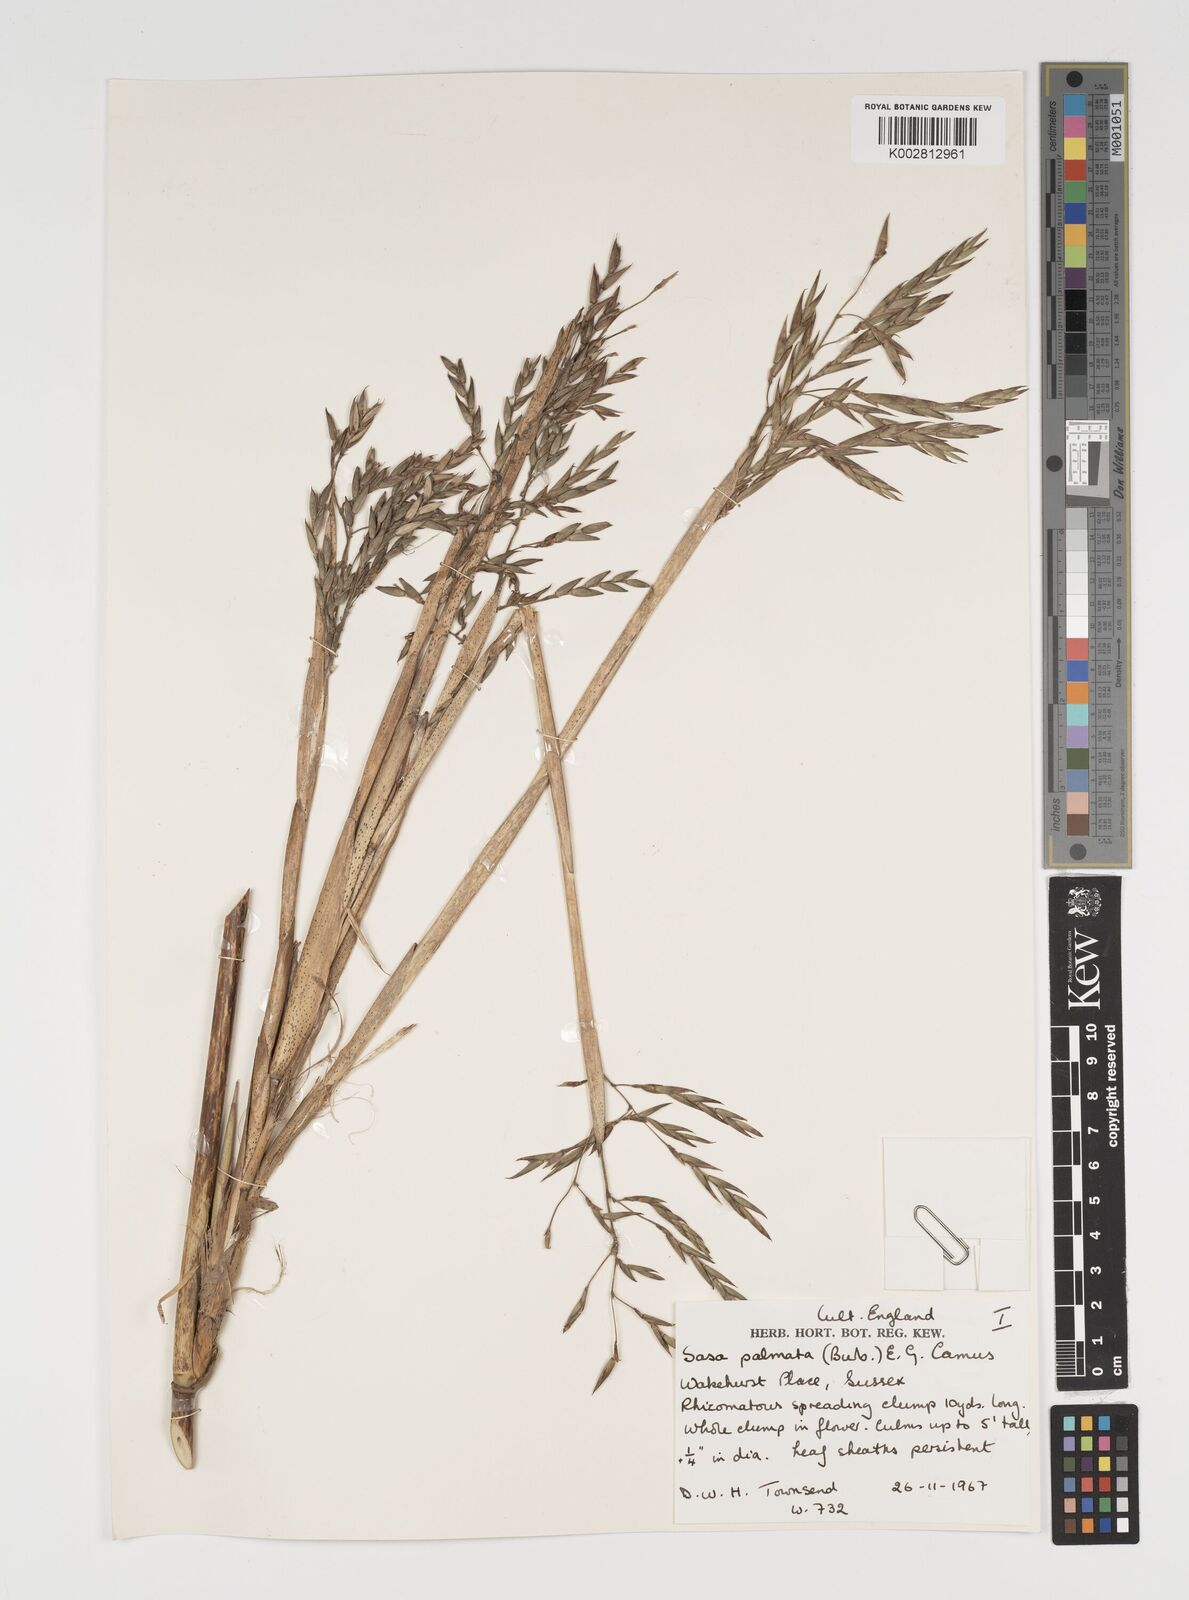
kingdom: Plantae
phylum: Tracheophyta
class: Liliopsida
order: Poales
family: Poaceae
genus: Sasa
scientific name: Sasa palmata
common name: Broad-leaved bamboo
